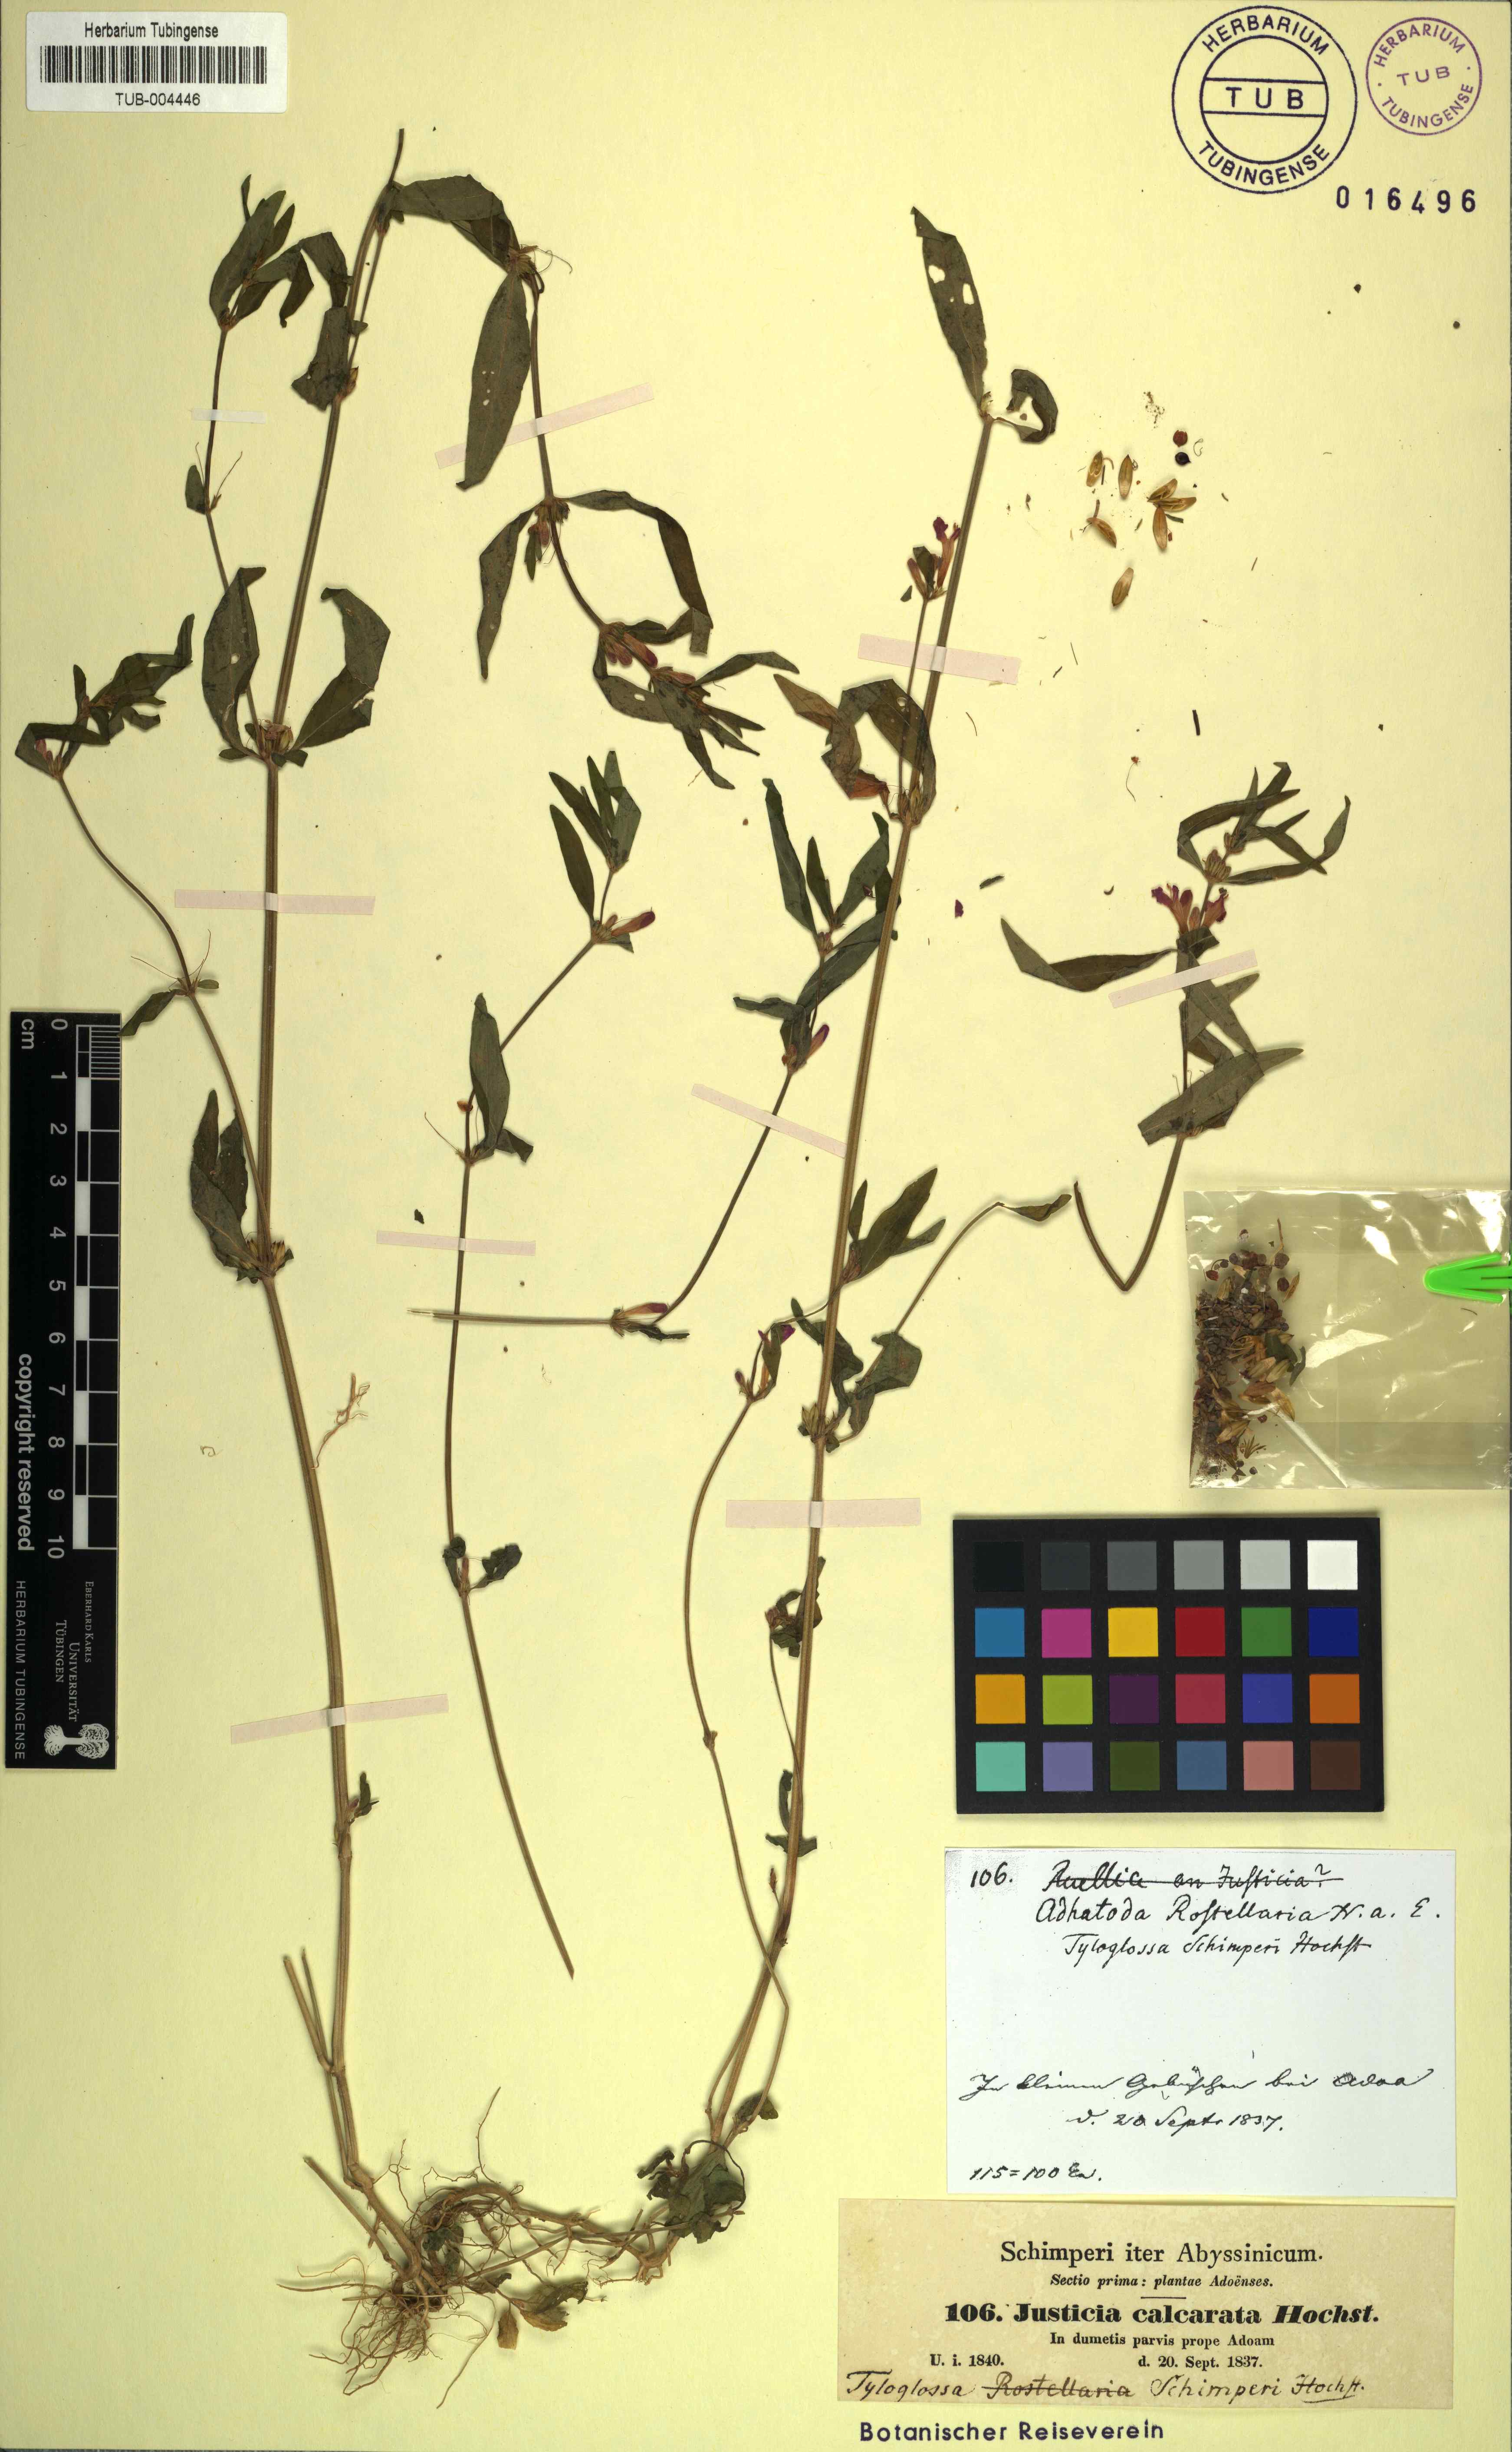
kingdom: Plantae
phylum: Tracheophyta
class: Magnoliopsida
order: Lamiales
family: Acanthaceae
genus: Justicia
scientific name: Justicia schimperiana
